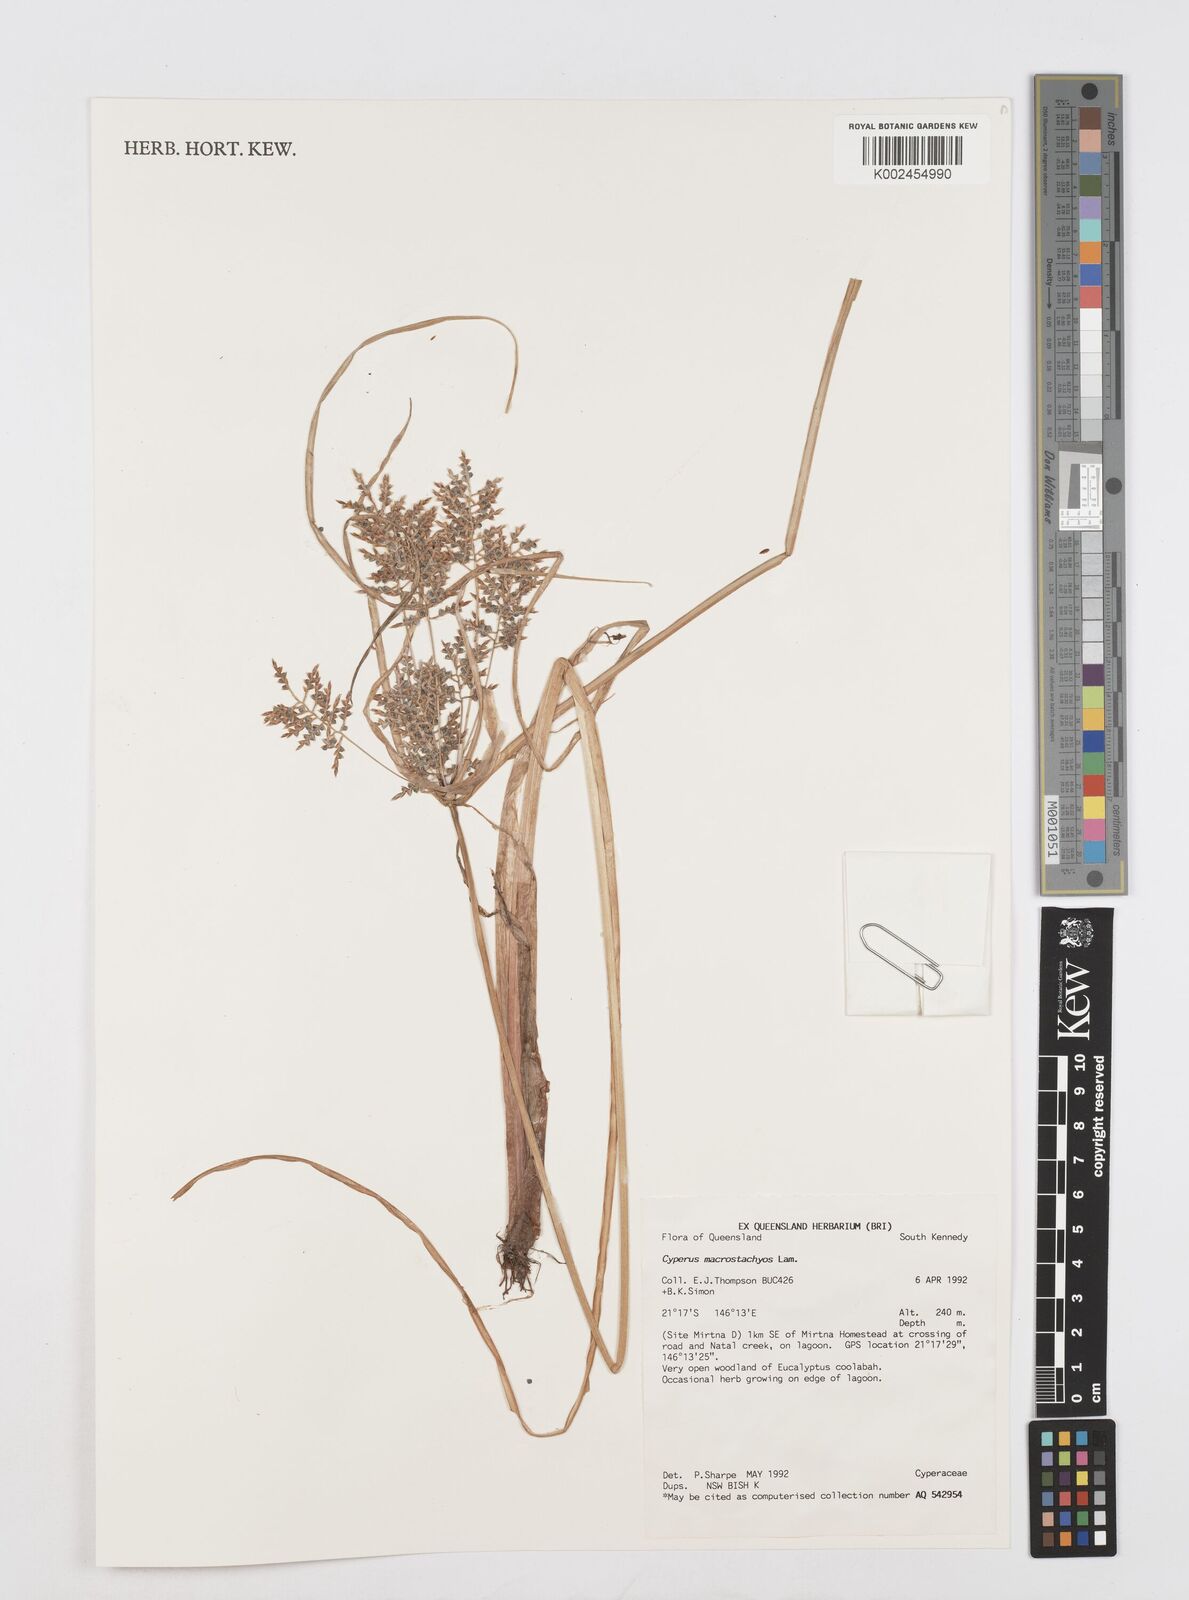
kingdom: Plantae
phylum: Tracheophyta
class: Liliopsida
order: Poales
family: Cyperaceae
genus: Cyperus
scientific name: Cyperus macrostachyos
